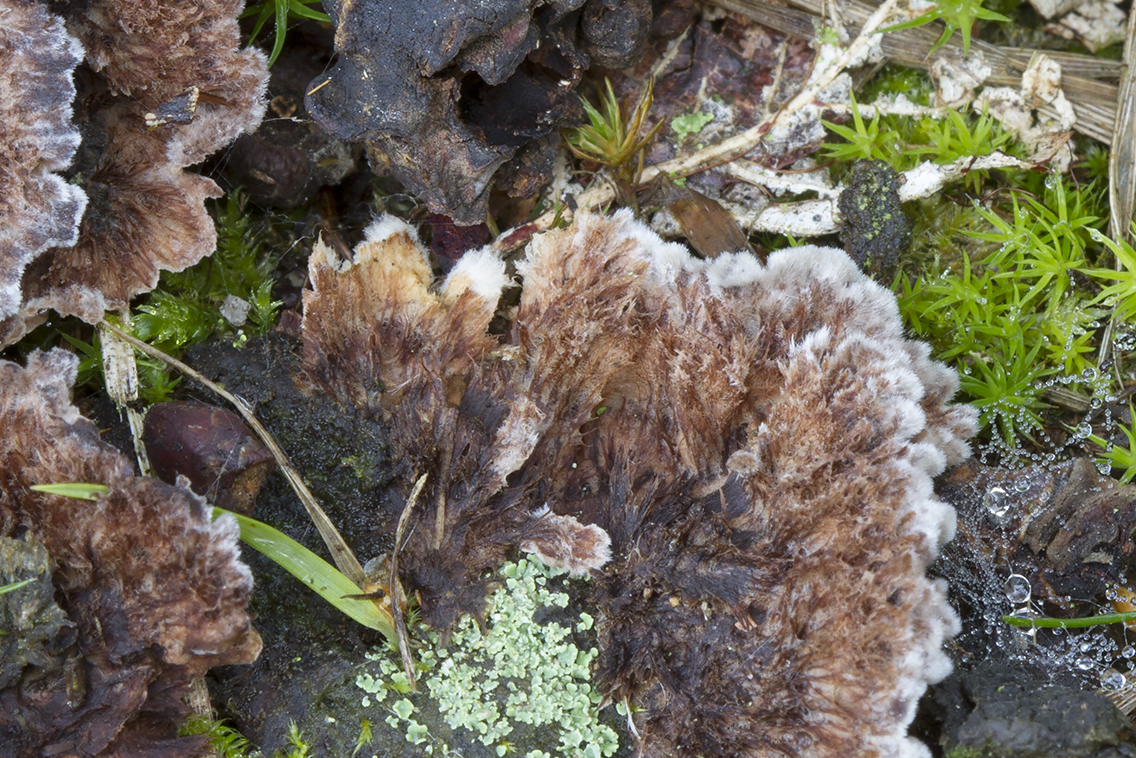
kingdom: Fungi
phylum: Basidiomycota
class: Agaricomycetes
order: Thelephorales
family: Thelephoraceae
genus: Thelephora
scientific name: Thelephora terrestris
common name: fliget frynsesvamp
